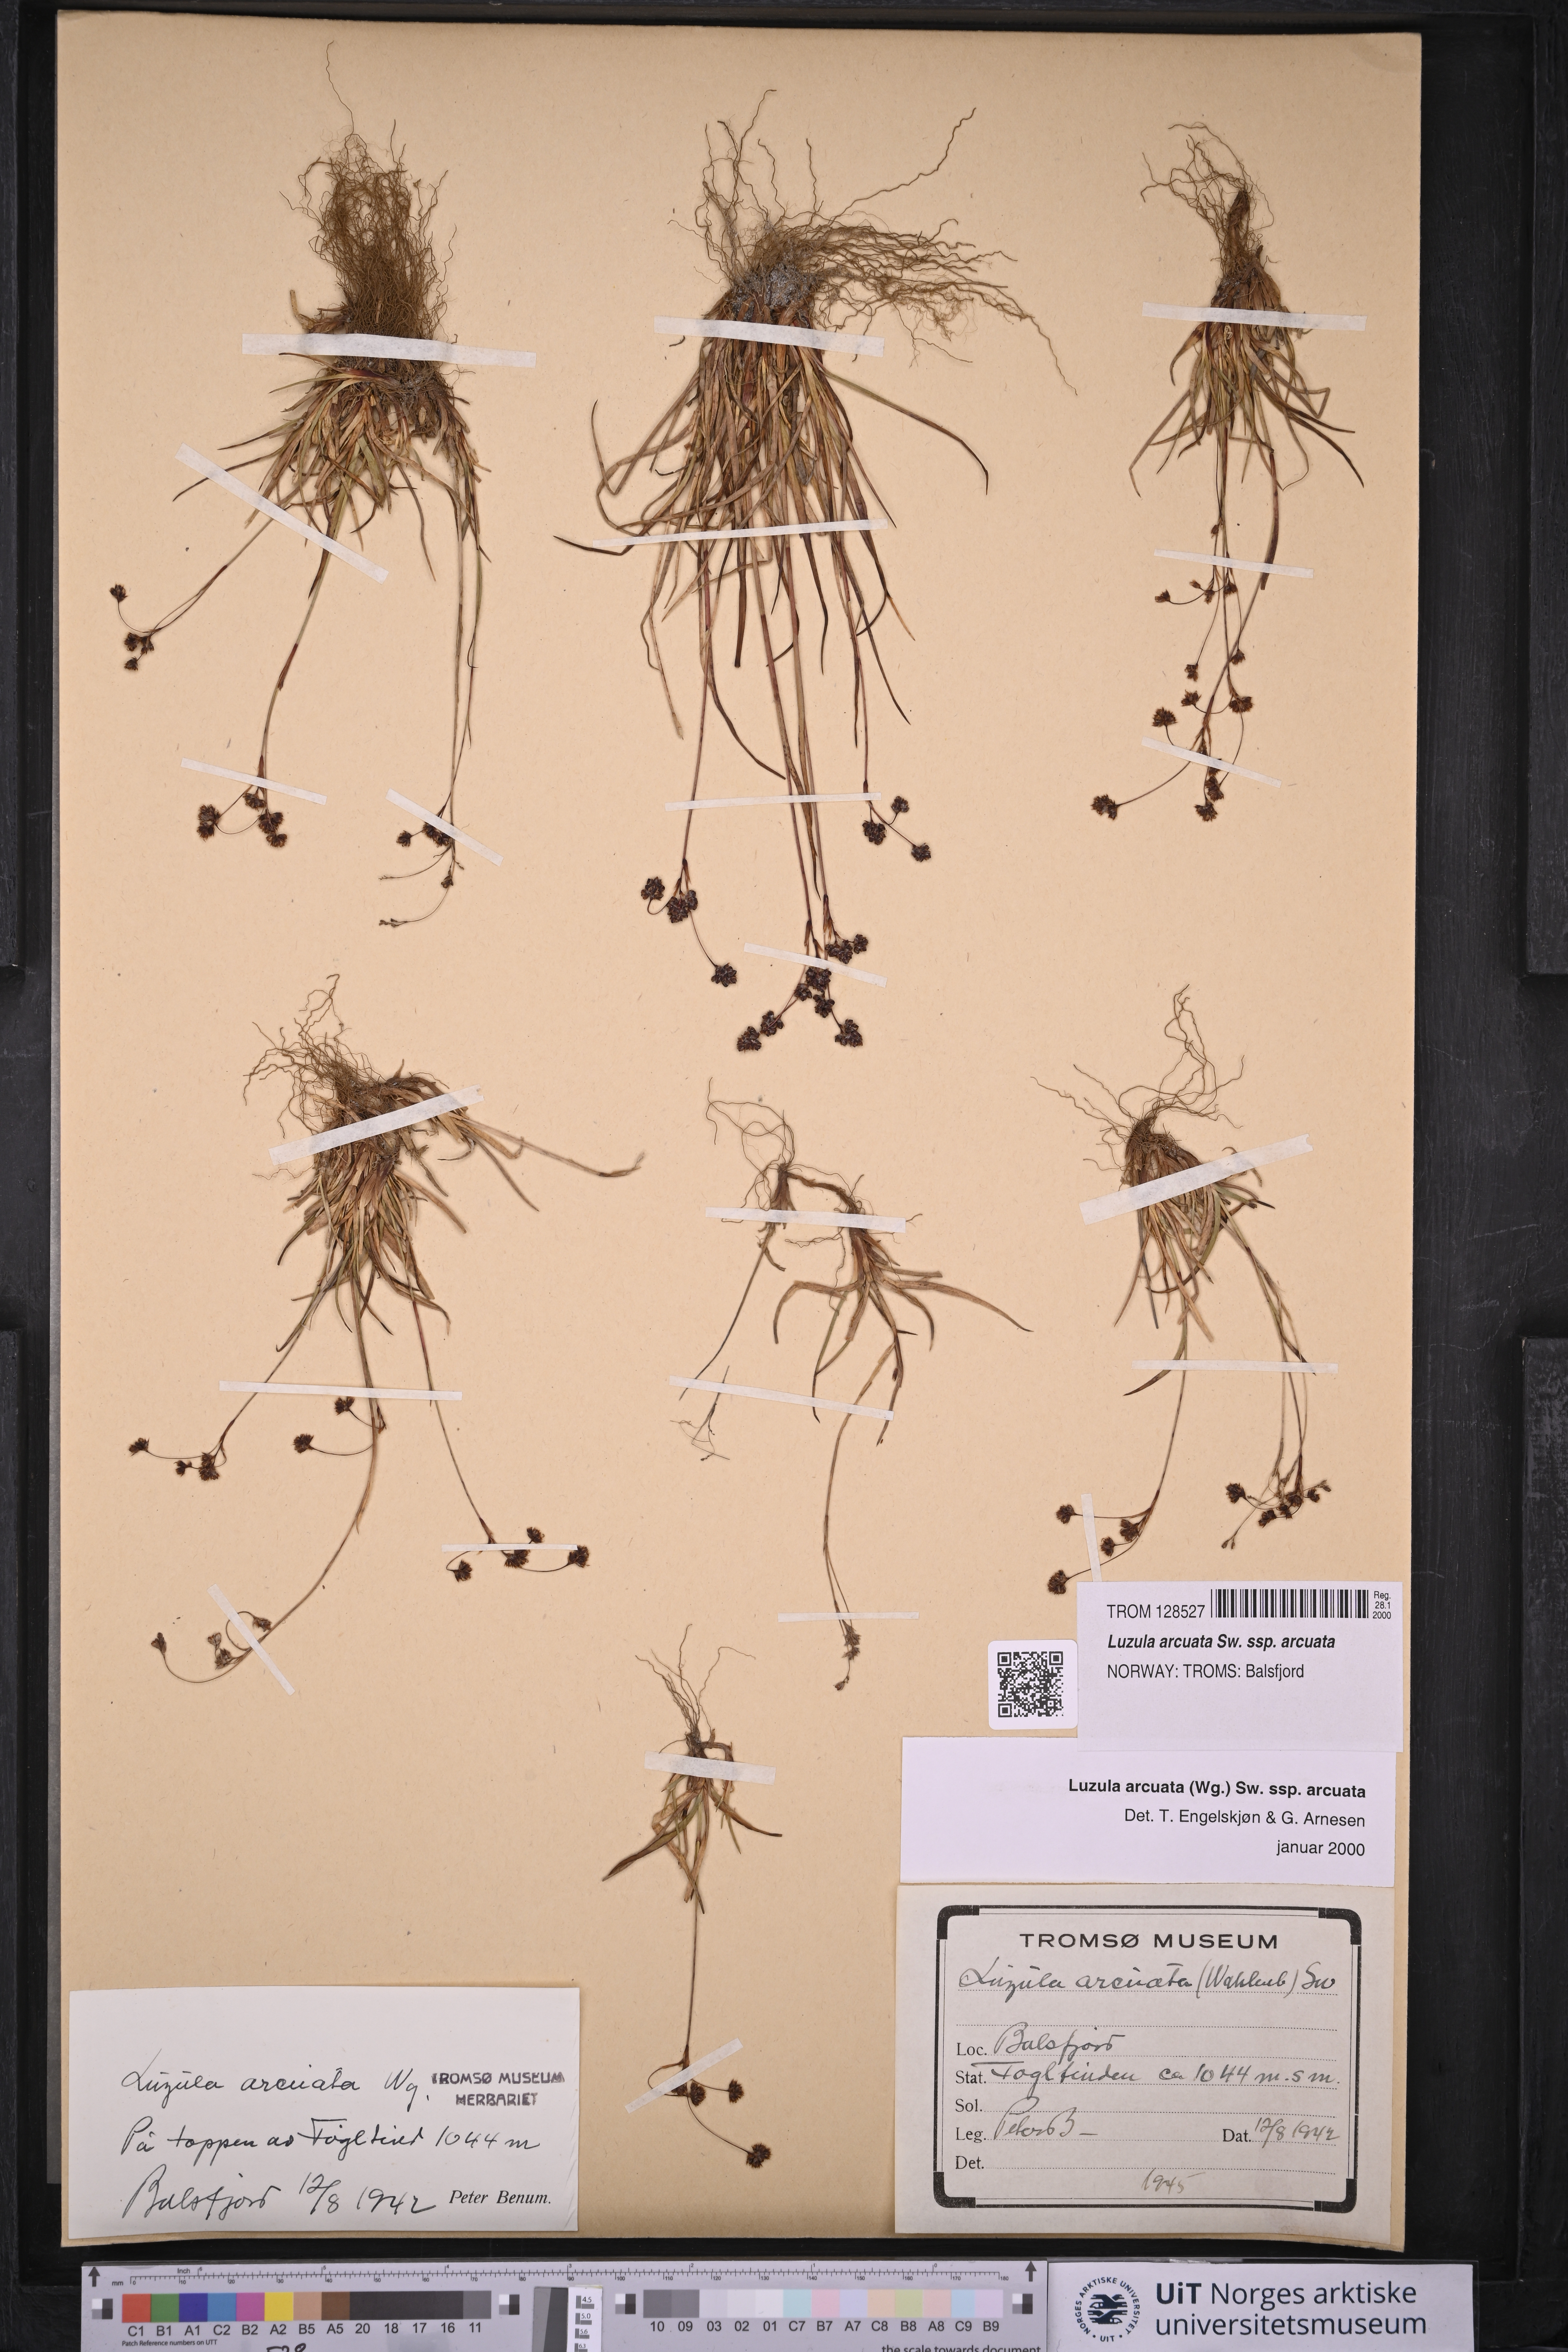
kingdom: Plantae
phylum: Tracheophyta
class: Liliopsida
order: Poales
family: Juncaceae
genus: Luzula
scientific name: Luzula arcuata
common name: Curved wood-rush
